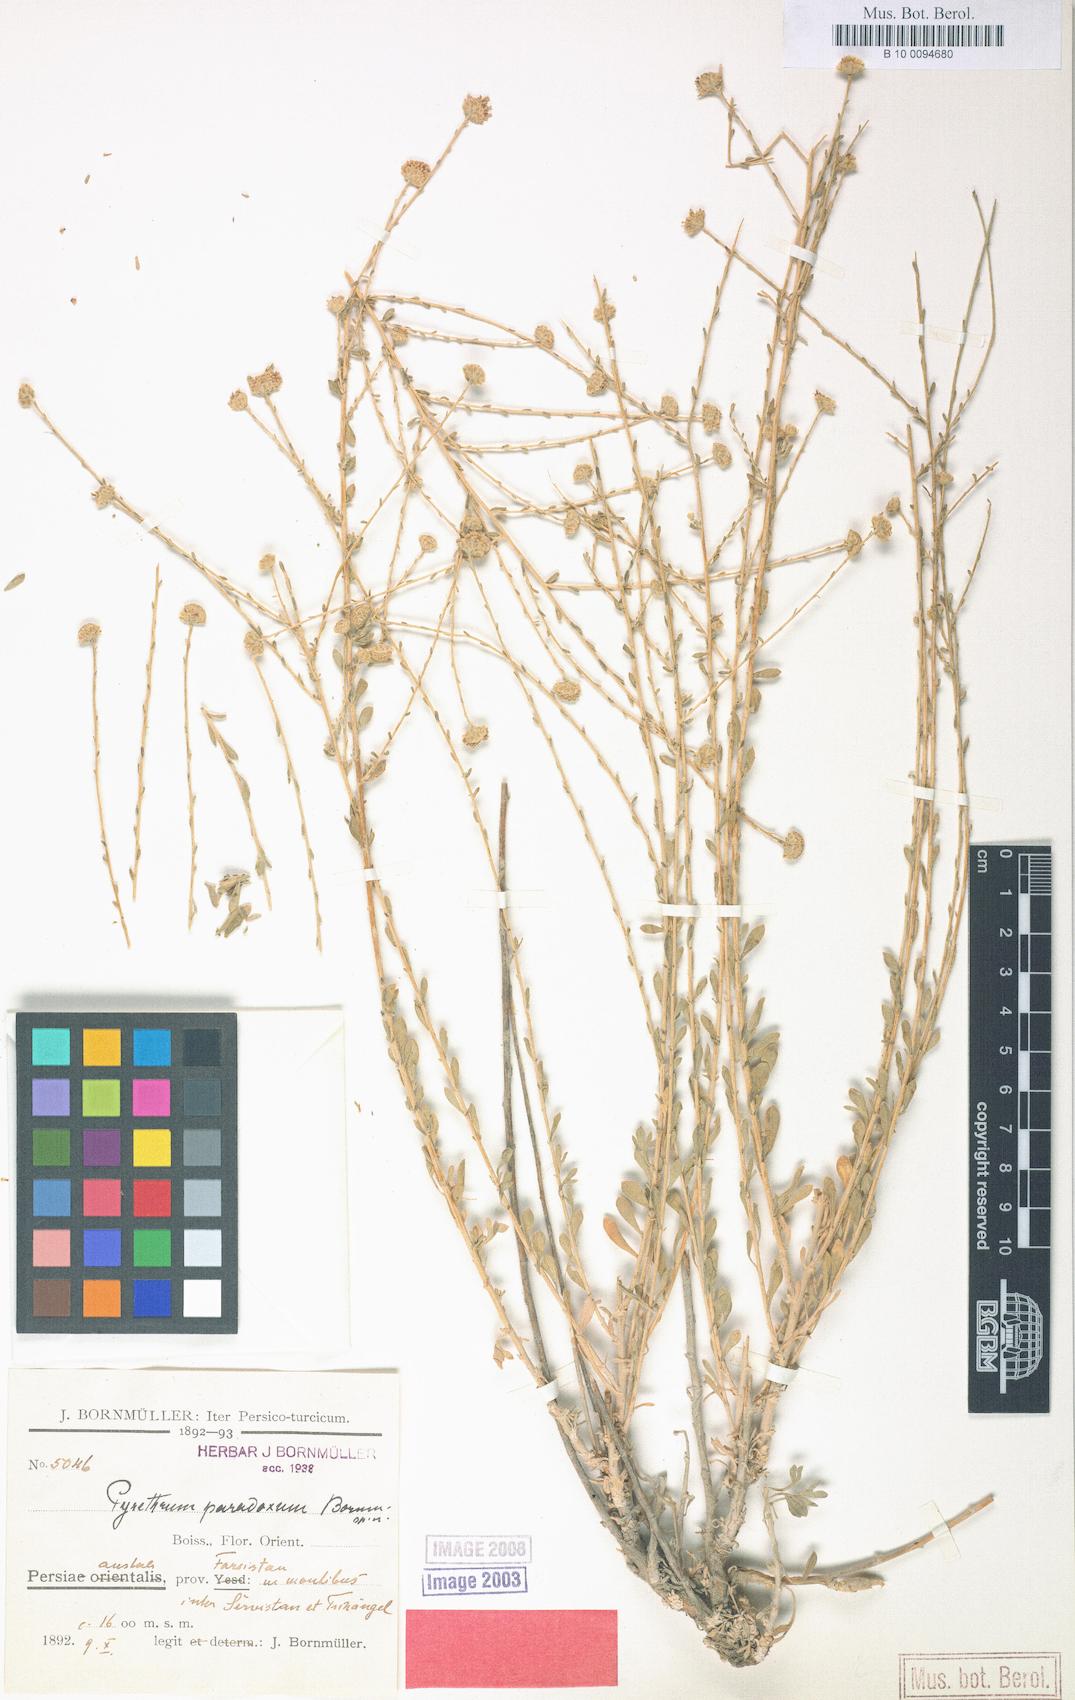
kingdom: Plantae
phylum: Tracheophyta
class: Magnoliopsida
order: Asterales
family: Asteraceae
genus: Tanacetum
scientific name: Tanacetum paradoxum
